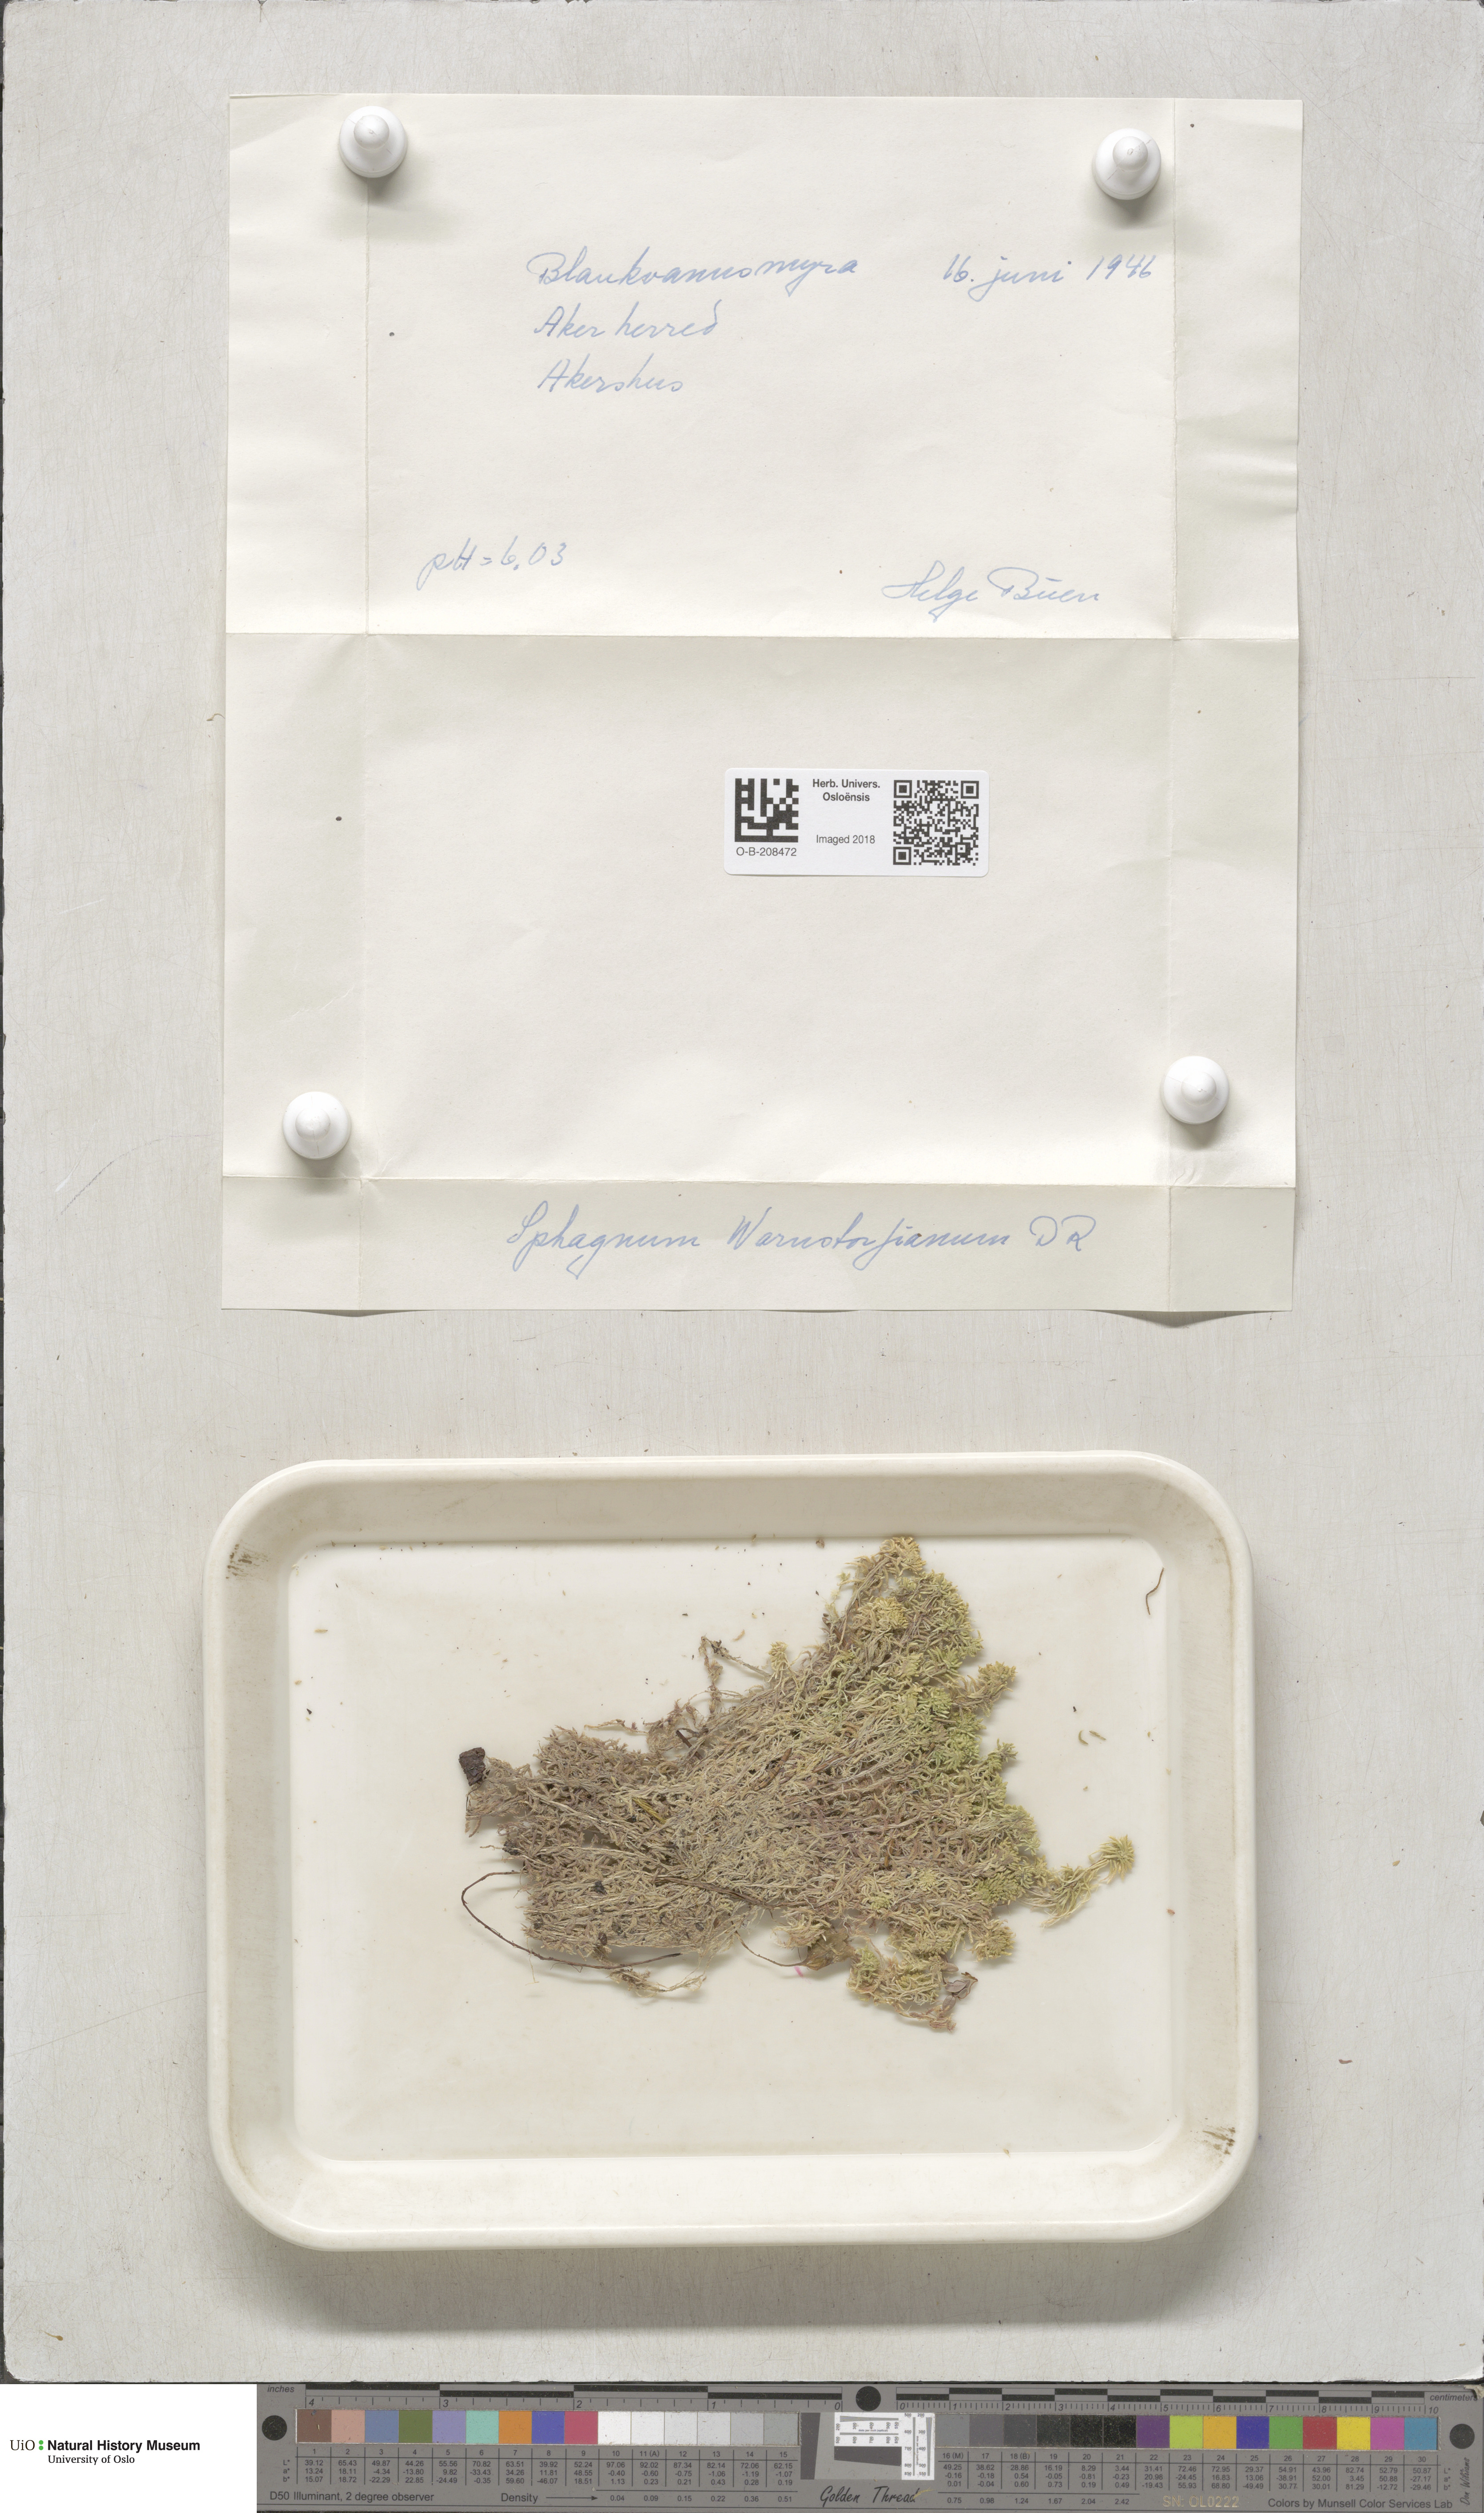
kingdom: Plantae
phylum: Bryophyta
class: Sphagnopsida
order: Sphagnales
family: Sphagnaceae
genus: Sphagnum
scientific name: Sphagnum warnstorfii
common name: Warnstorf's peat moss
